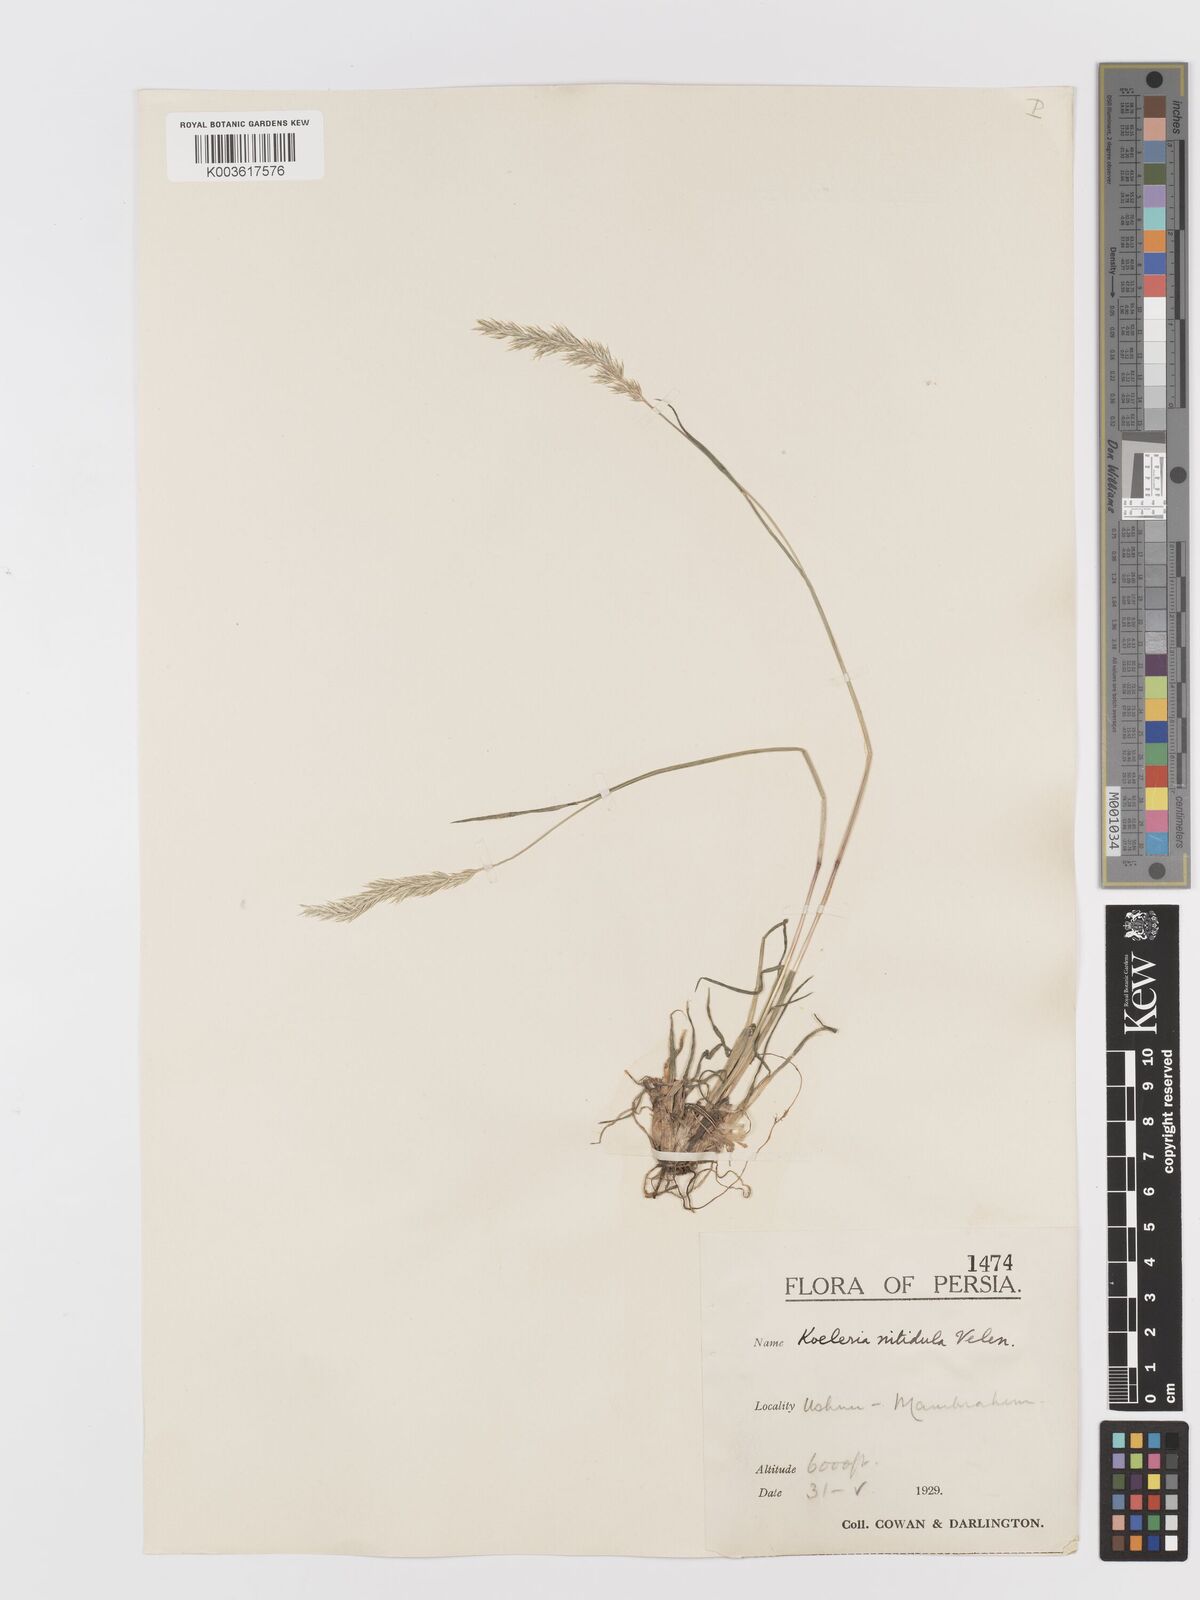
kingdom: Plantae
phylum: Tracheophyta
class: Liliopsida
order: Poales
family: Poaceae
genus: Koeleria
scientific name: Koeleria nitidula
